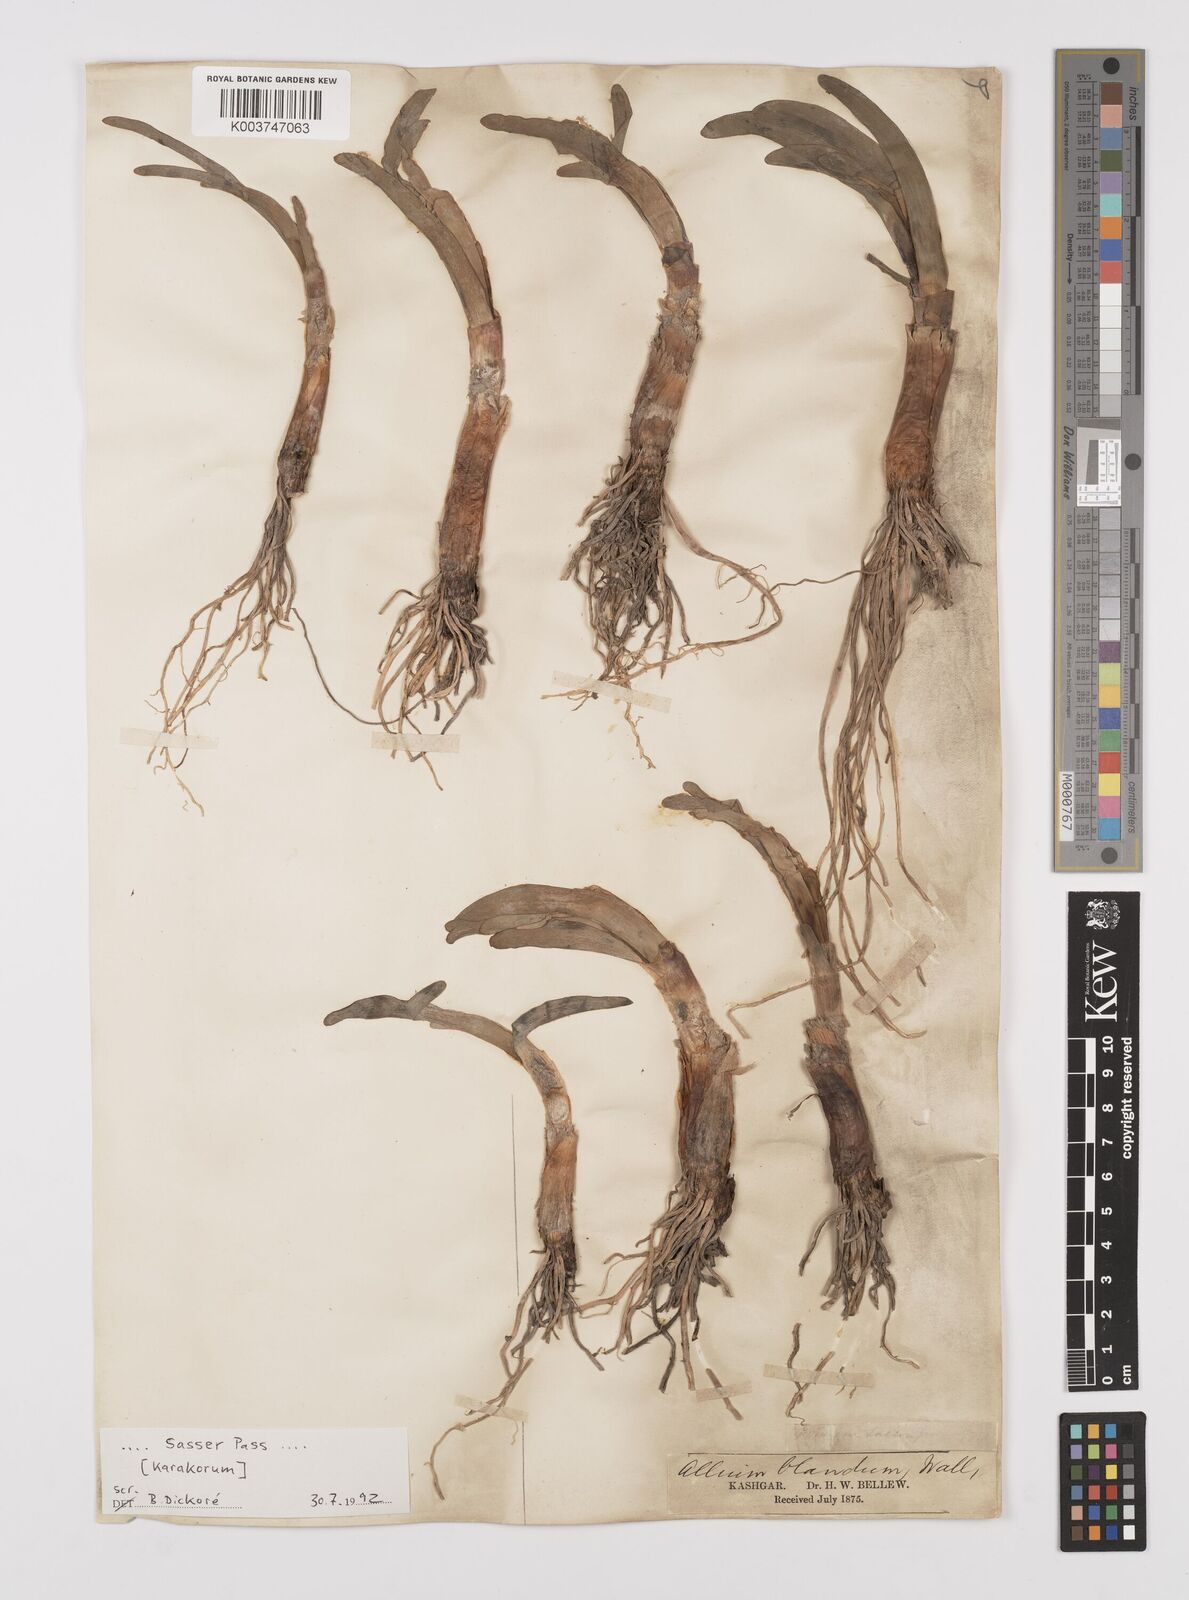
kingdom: Plantae
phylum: Tracheophyta
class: Liliopsida
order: Asparagales
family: Amaryllidaceae
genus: Allium
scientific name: Allium blandum
